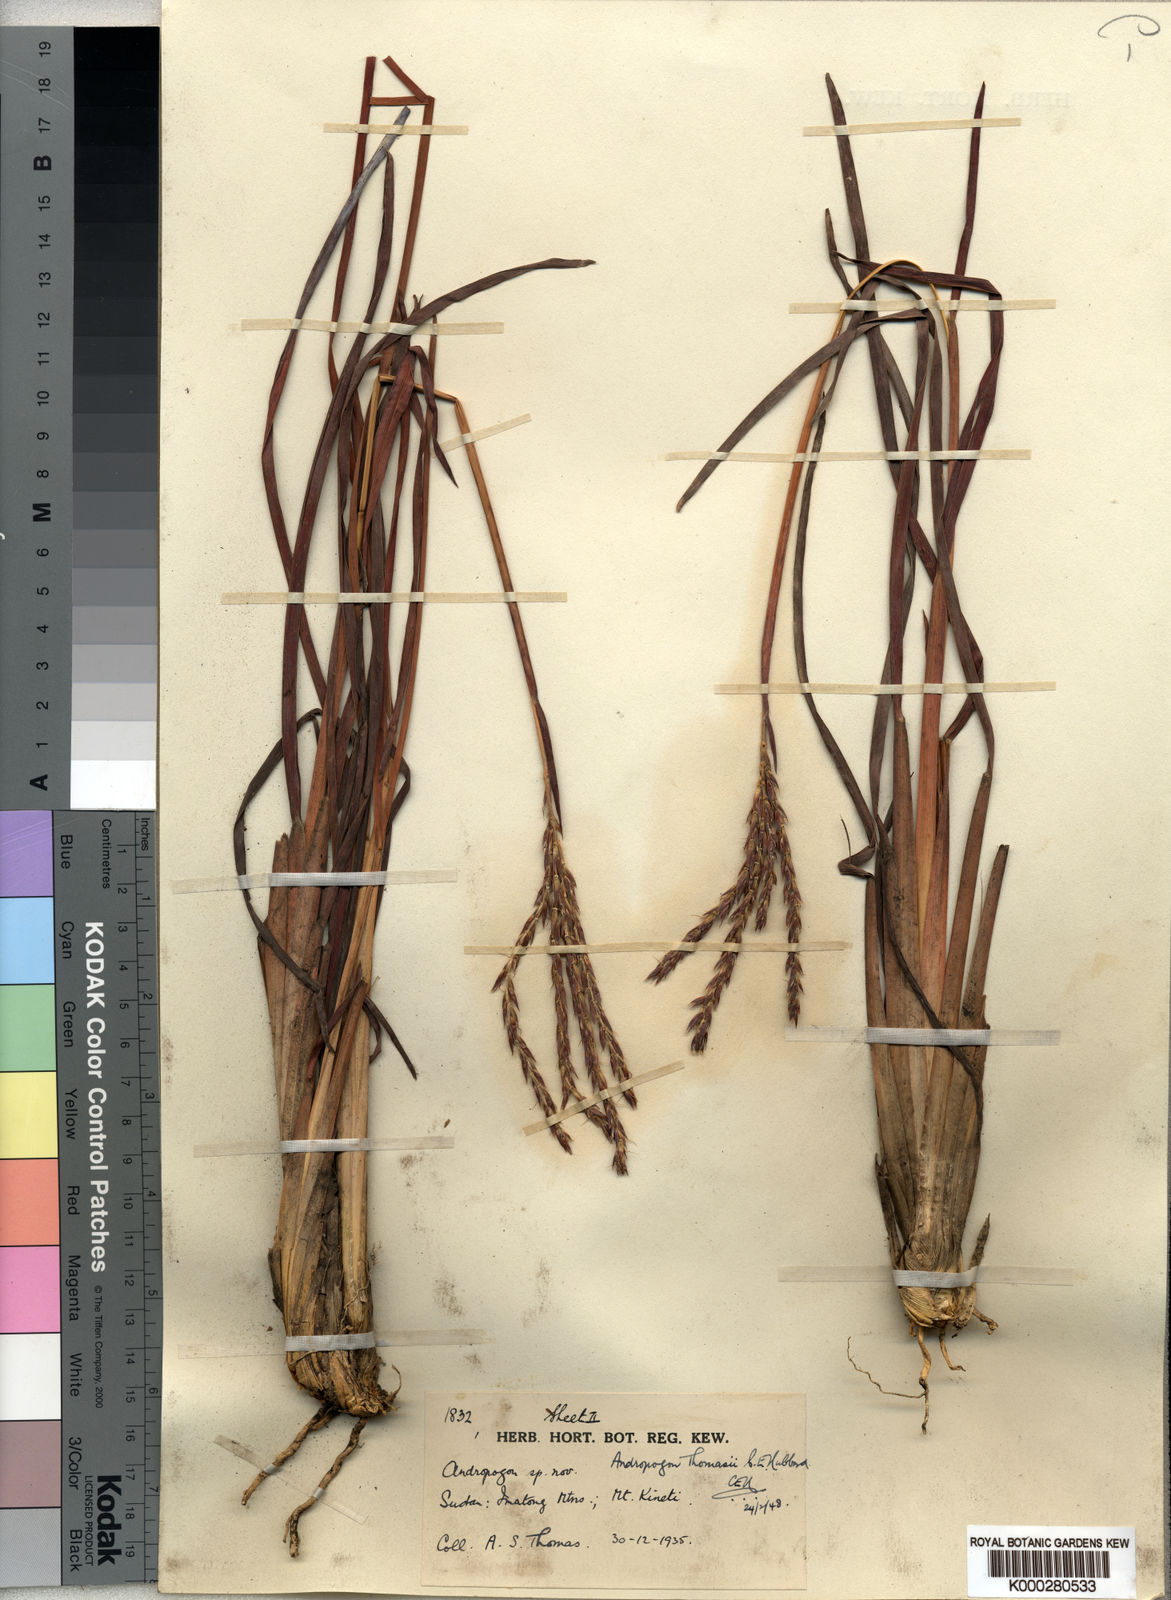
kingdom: Plantae
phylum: Tracheophyta
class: Liliopsida
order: Poales
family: Poaceae
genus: Andropogon
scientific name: Andropogon mannii
